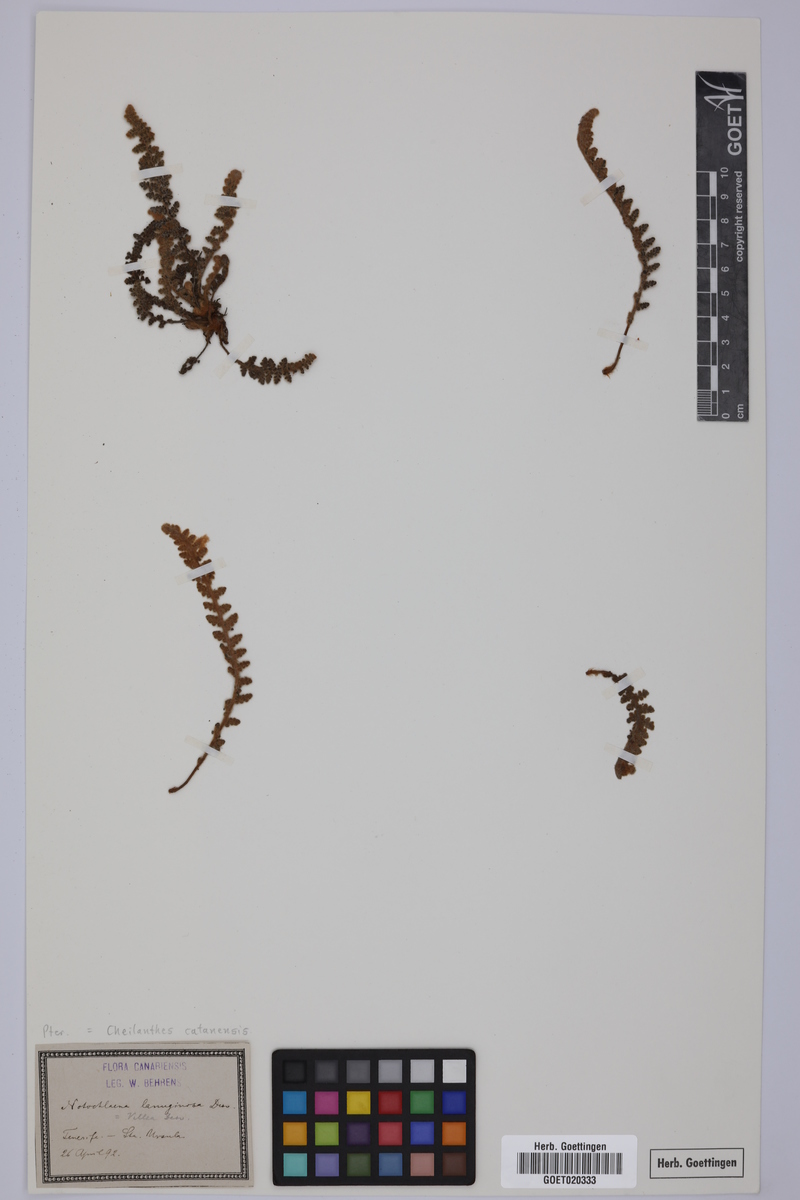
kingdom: Plantae
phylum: Tracheophyta
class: Polypodiopsida
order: Polypodiales
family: Pteridaceae
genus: Cosentinia
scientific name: Cosentinia vellea
